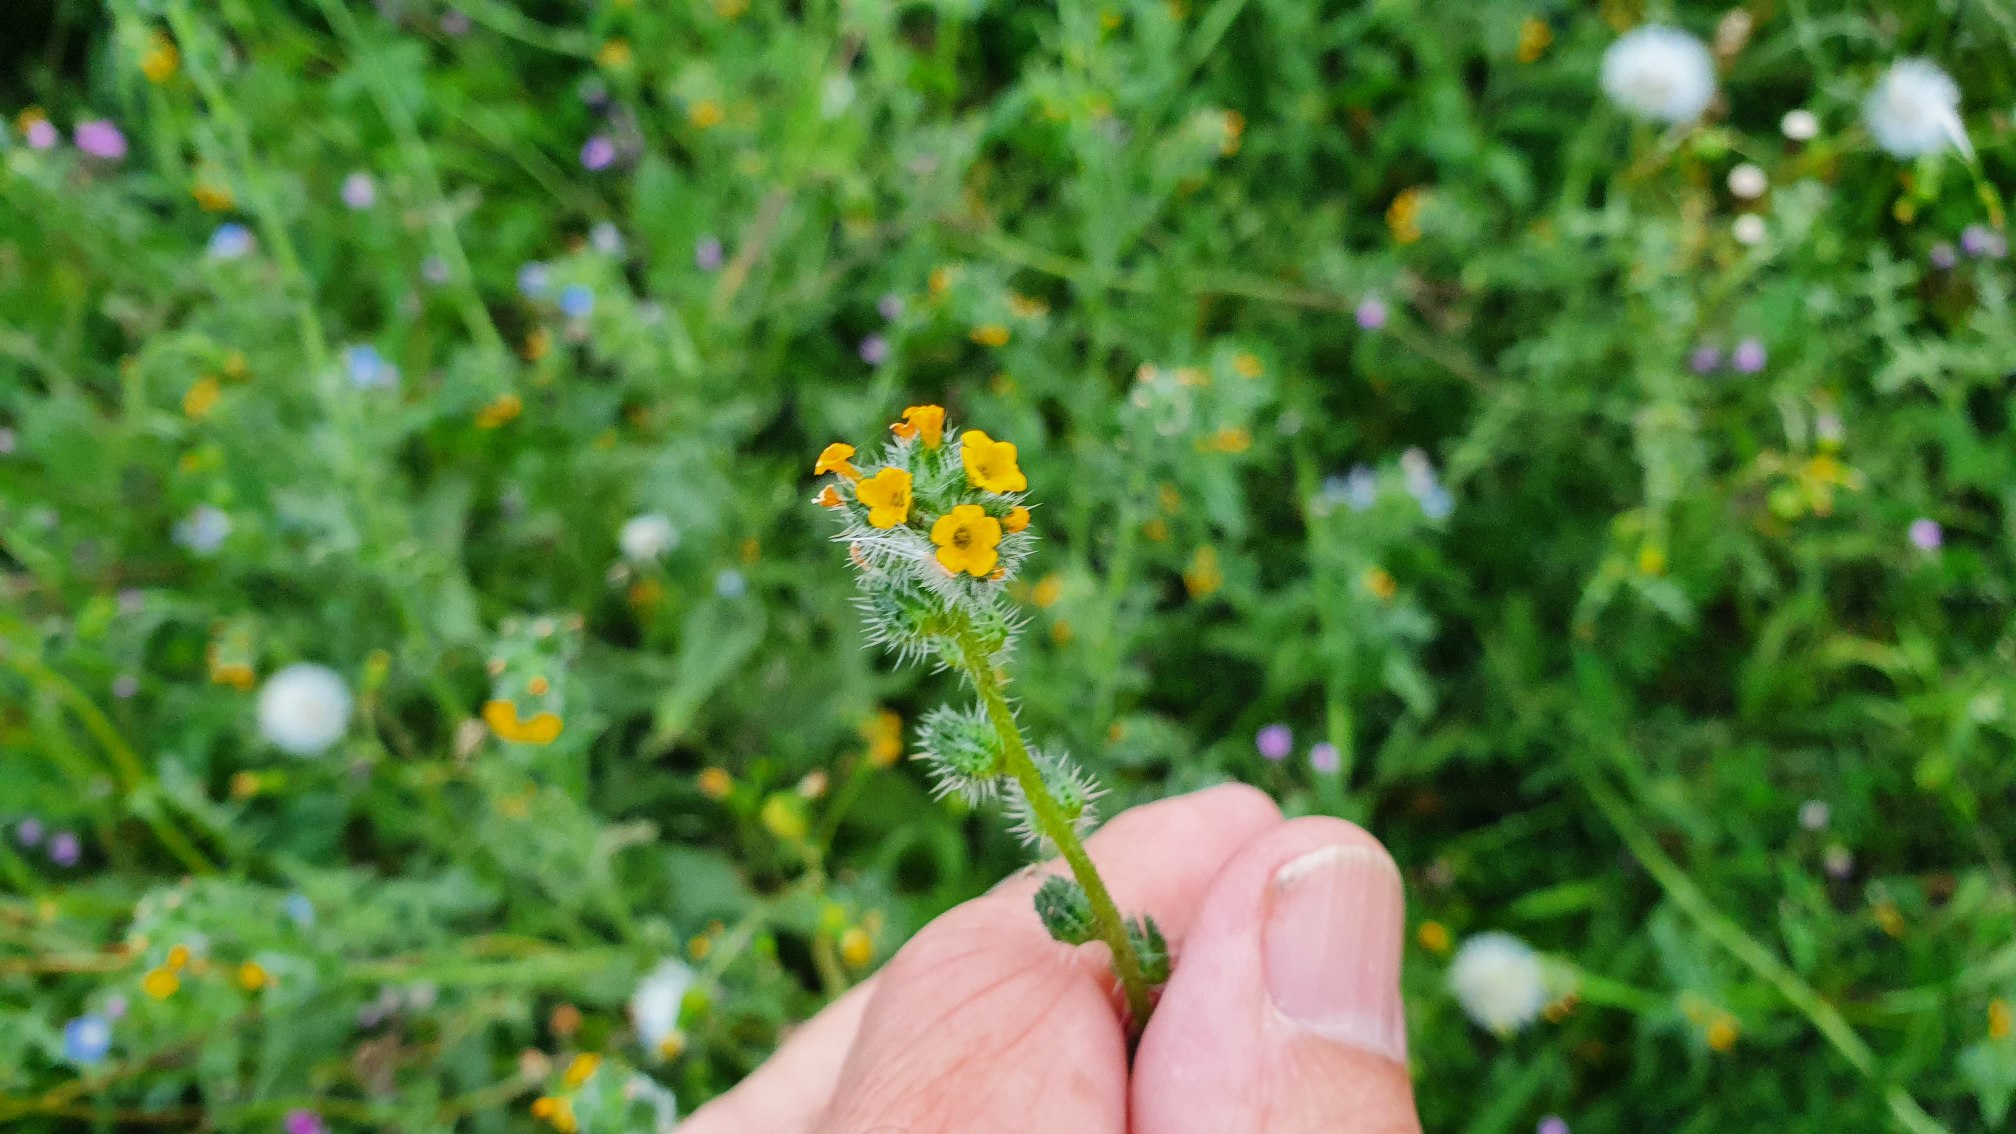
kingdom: Plantae
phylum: Tracheophyta
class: Magnoliopsida
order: Boraginales
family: Boraginaceae
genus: Amsinckia
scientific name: Amsinckia menziesii
